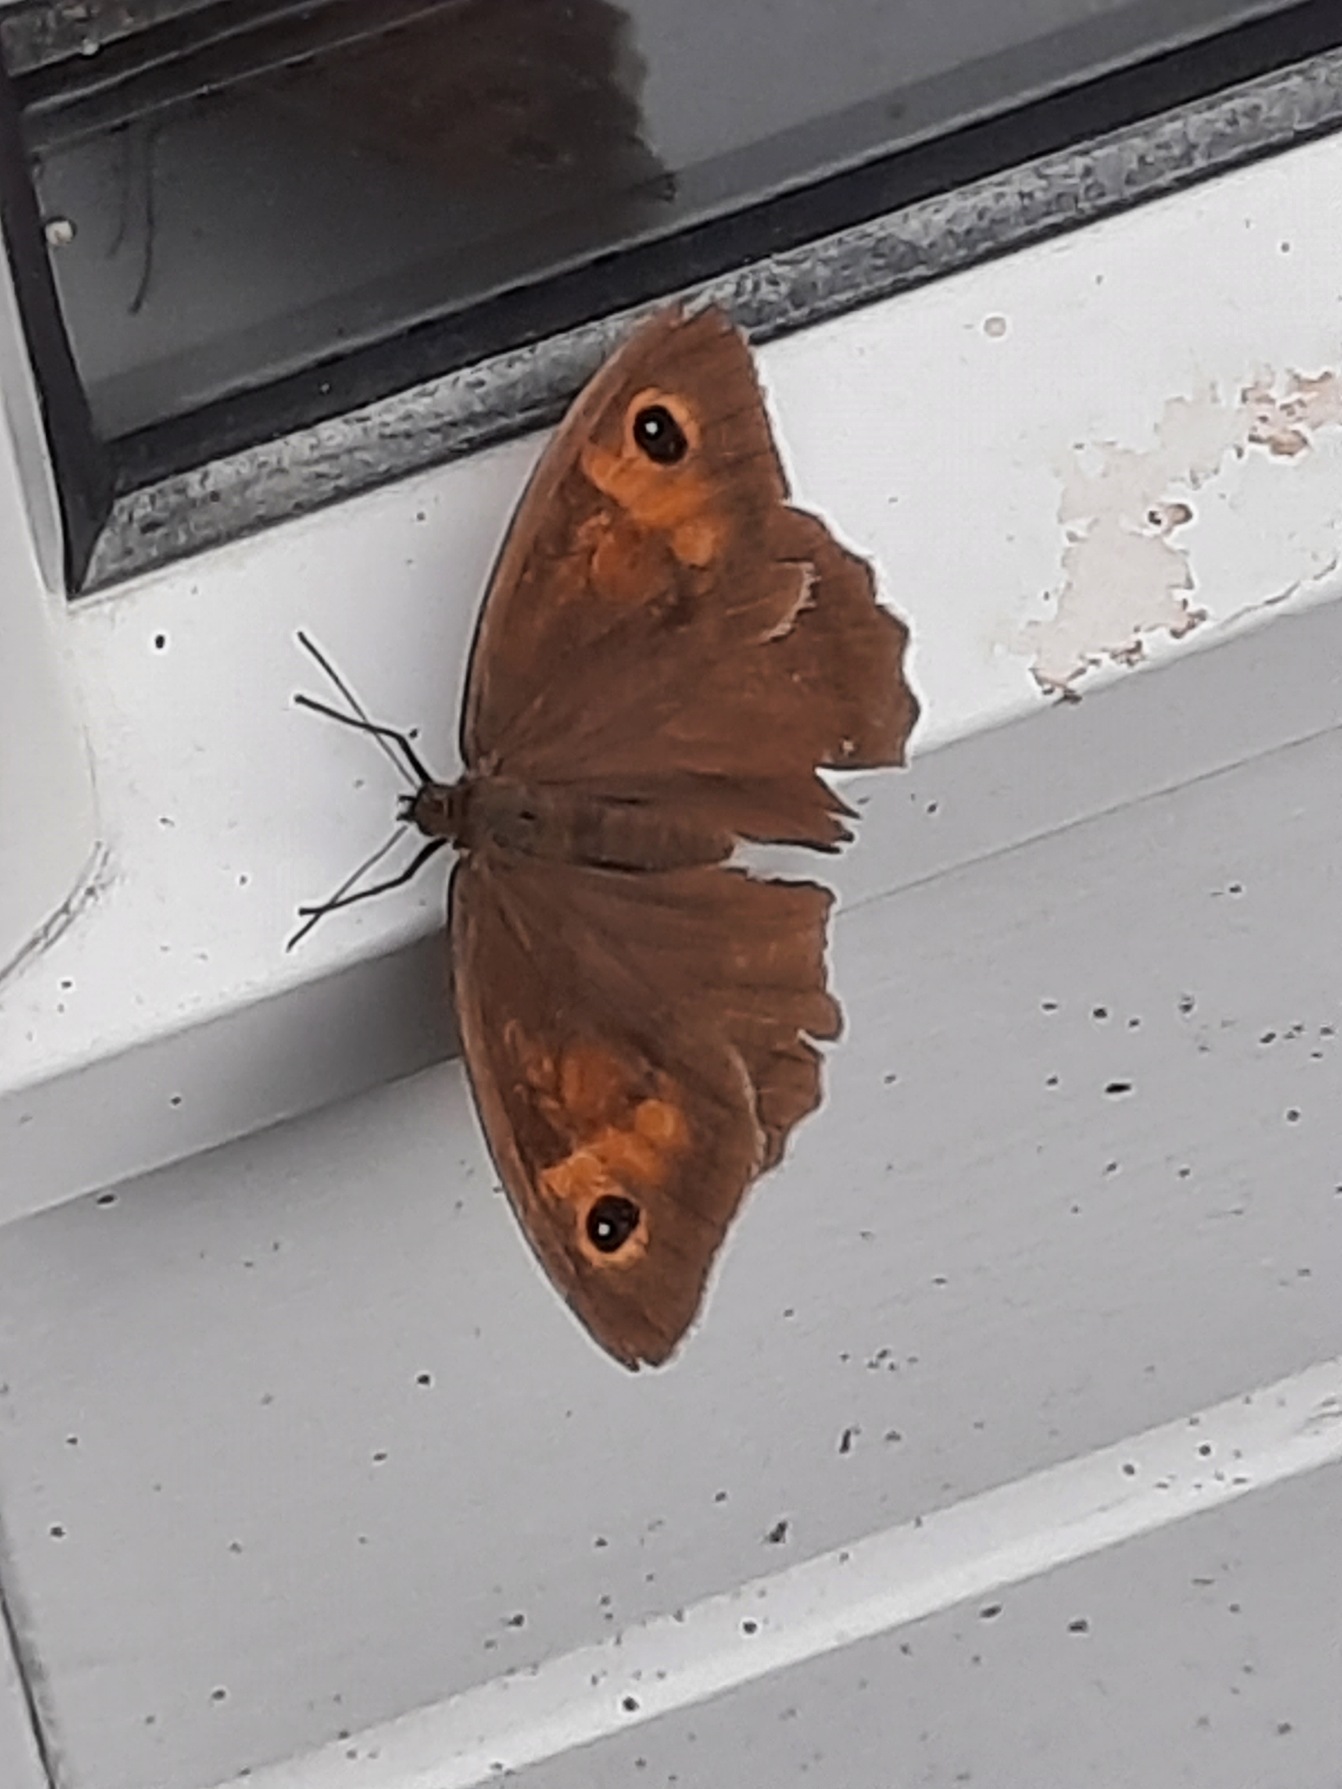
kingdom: Animalia
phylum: Arthropoda
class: Insecta
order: Lepidoptera
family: Nymphalidae
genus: Maniola
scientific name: Maniola jurtina
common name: Græsrandøje
